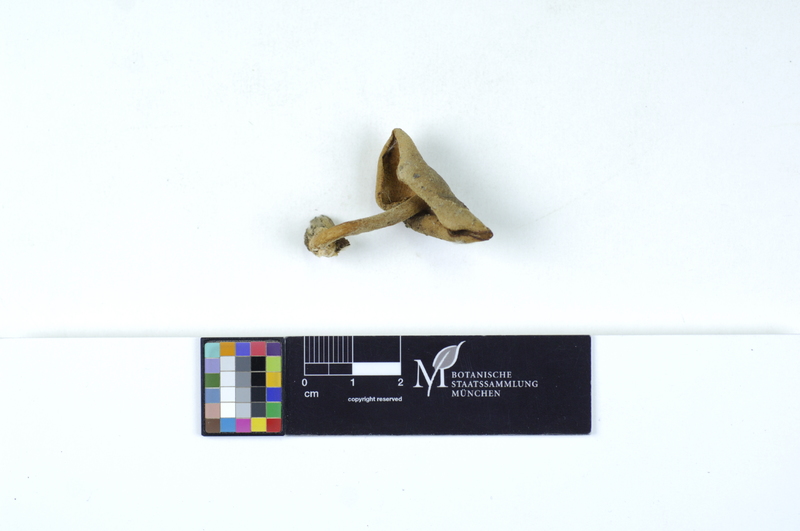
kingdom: Plantae
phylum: Tracheophyta
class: Magnoliopsida
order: Fagales
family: Fagaceae
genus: Quercus
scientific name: Quercus
